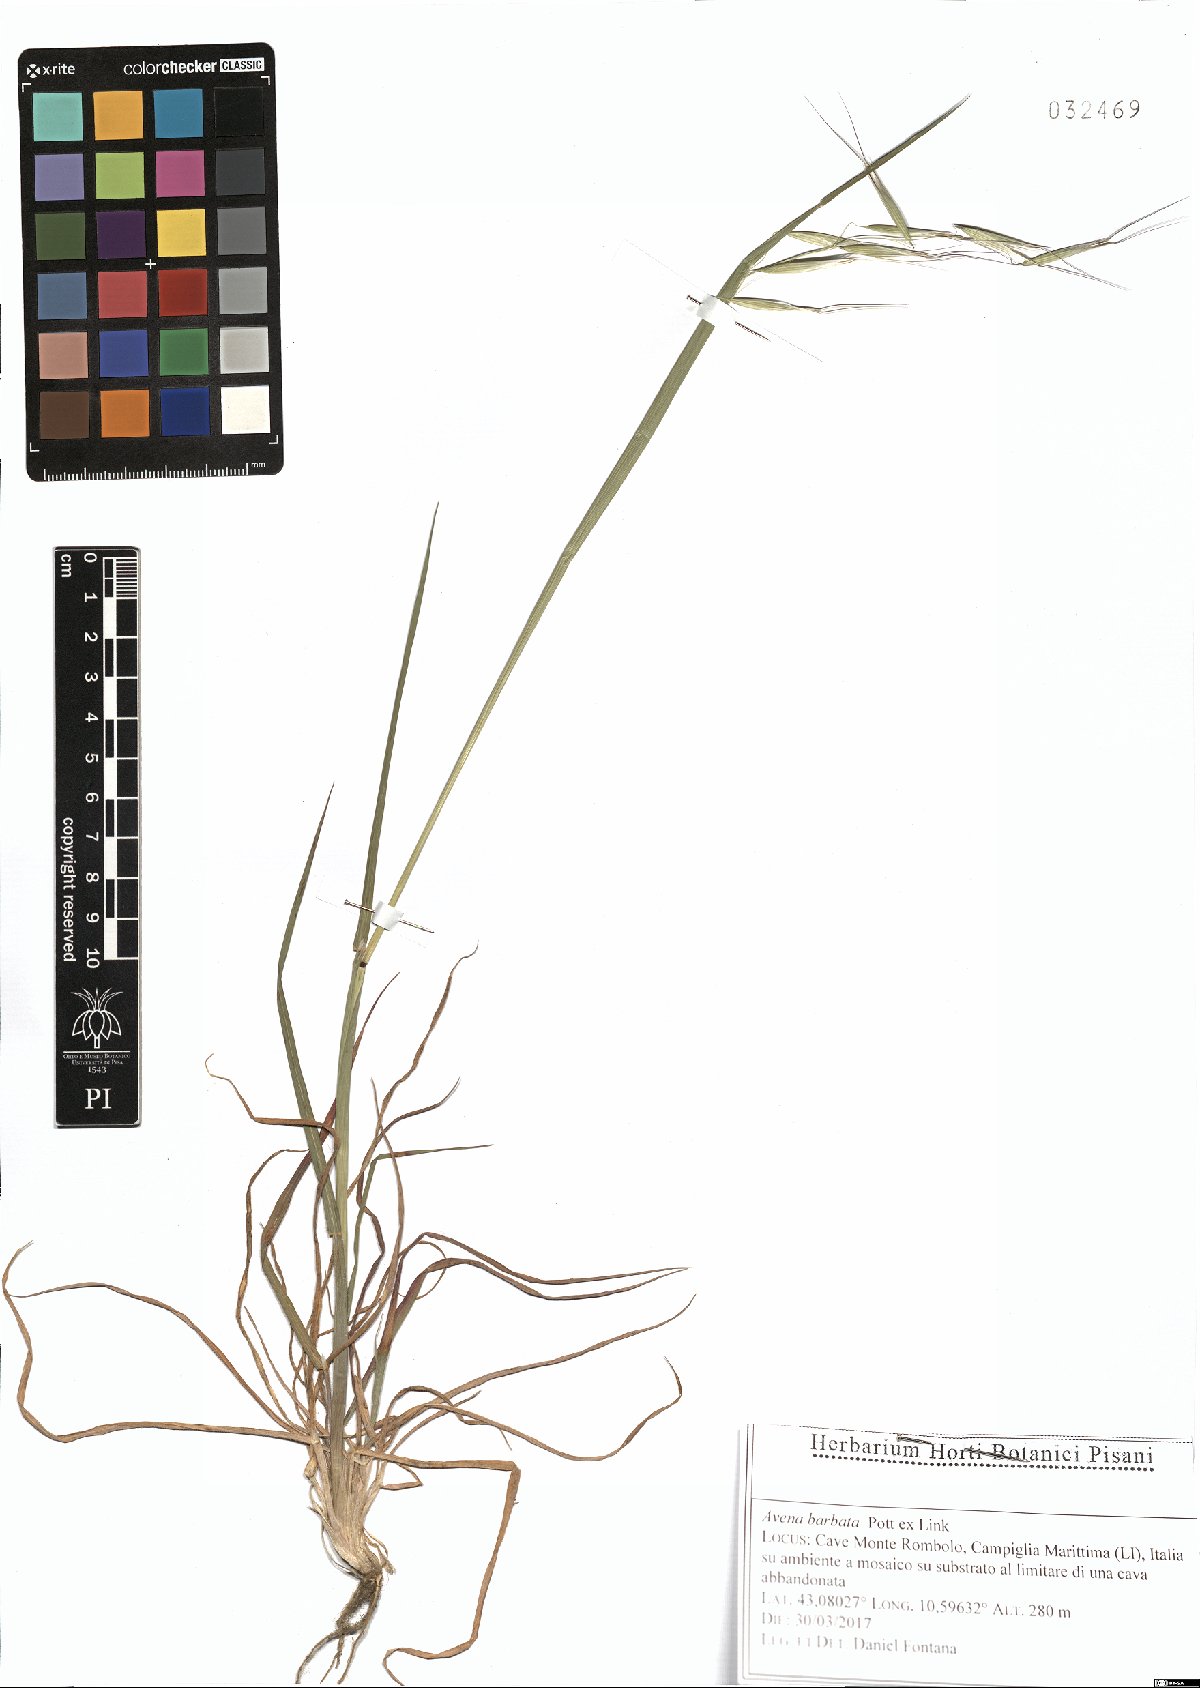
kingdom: Plantae
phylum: Tracheophyta
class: Liliopsida
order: Poales
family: Poaceae
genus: Avena
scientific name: Avena barbata
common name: Slender oat
